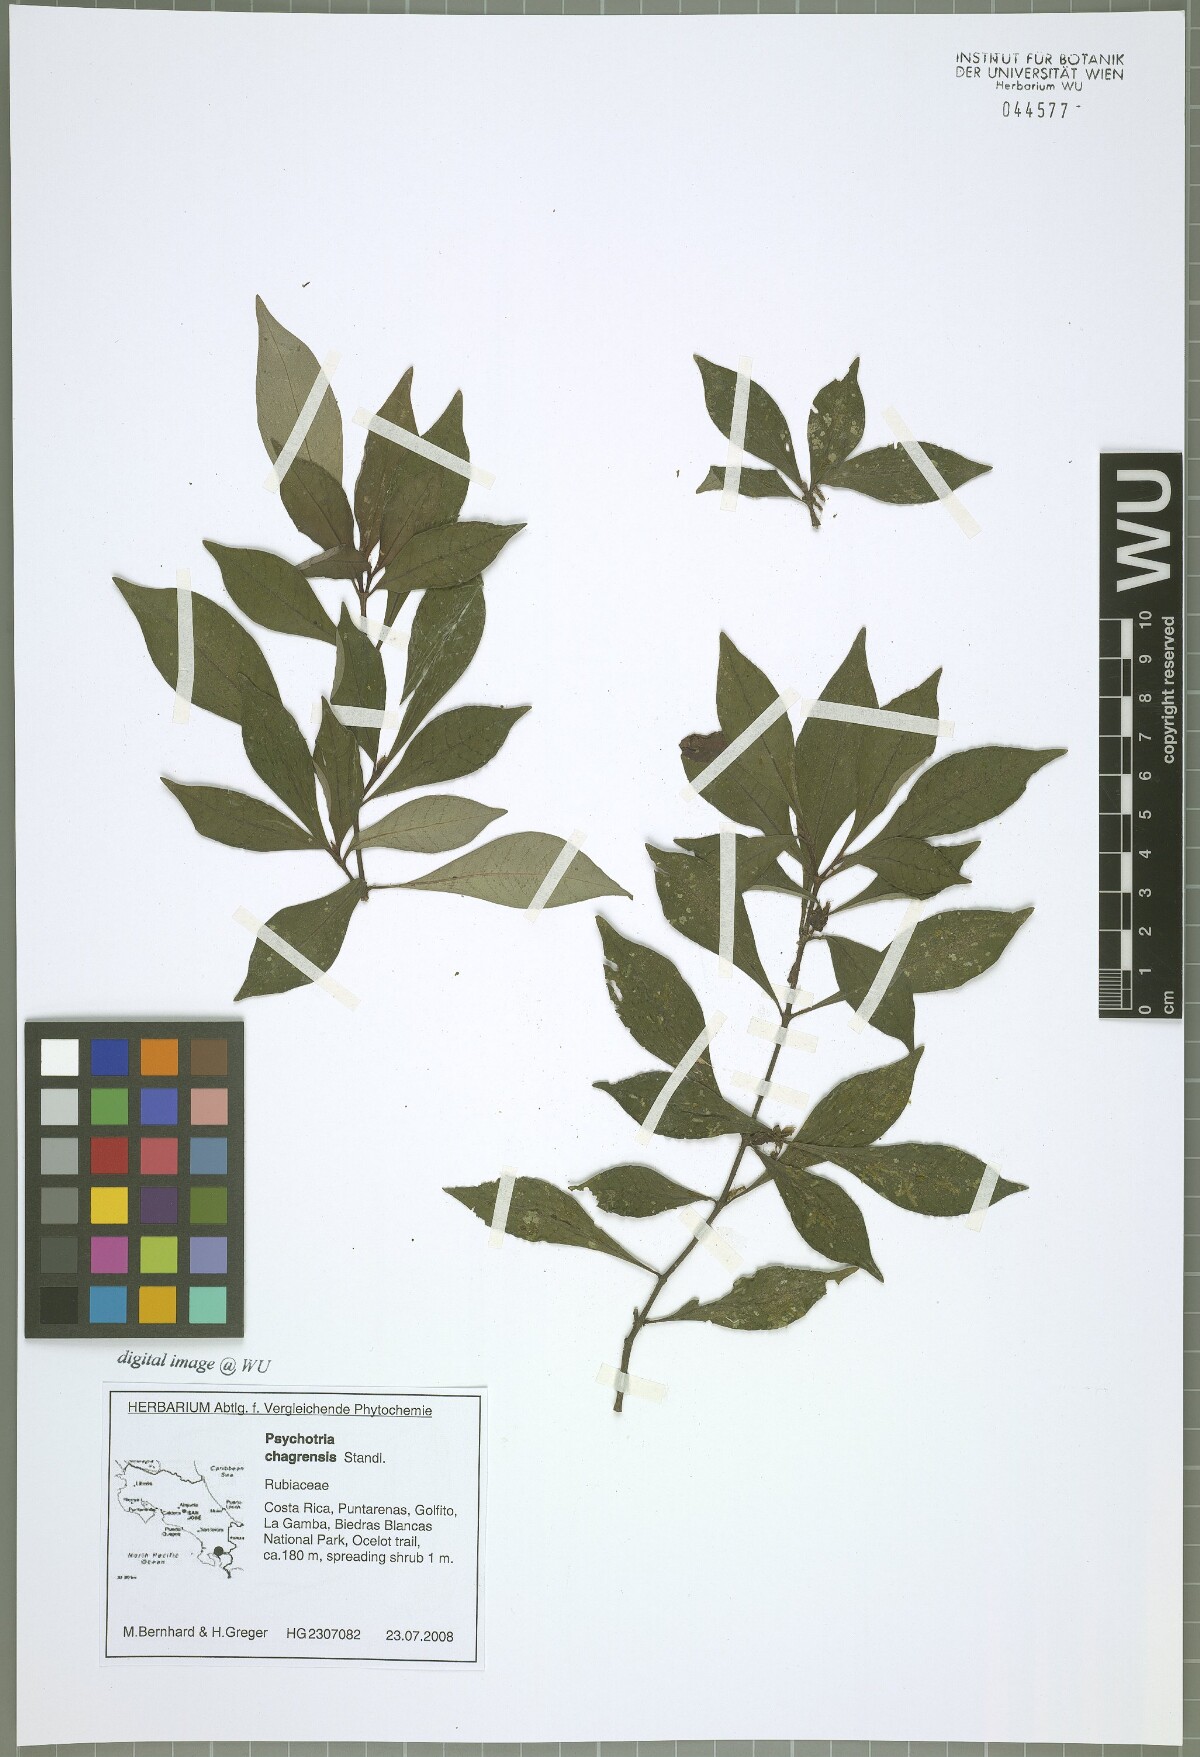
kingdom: Plantae
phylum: Tracheophyta
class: Magnoliopsida
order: Gentianales
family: Rubiaceae
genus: Psychotria
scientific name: Psychotria chagrensis
